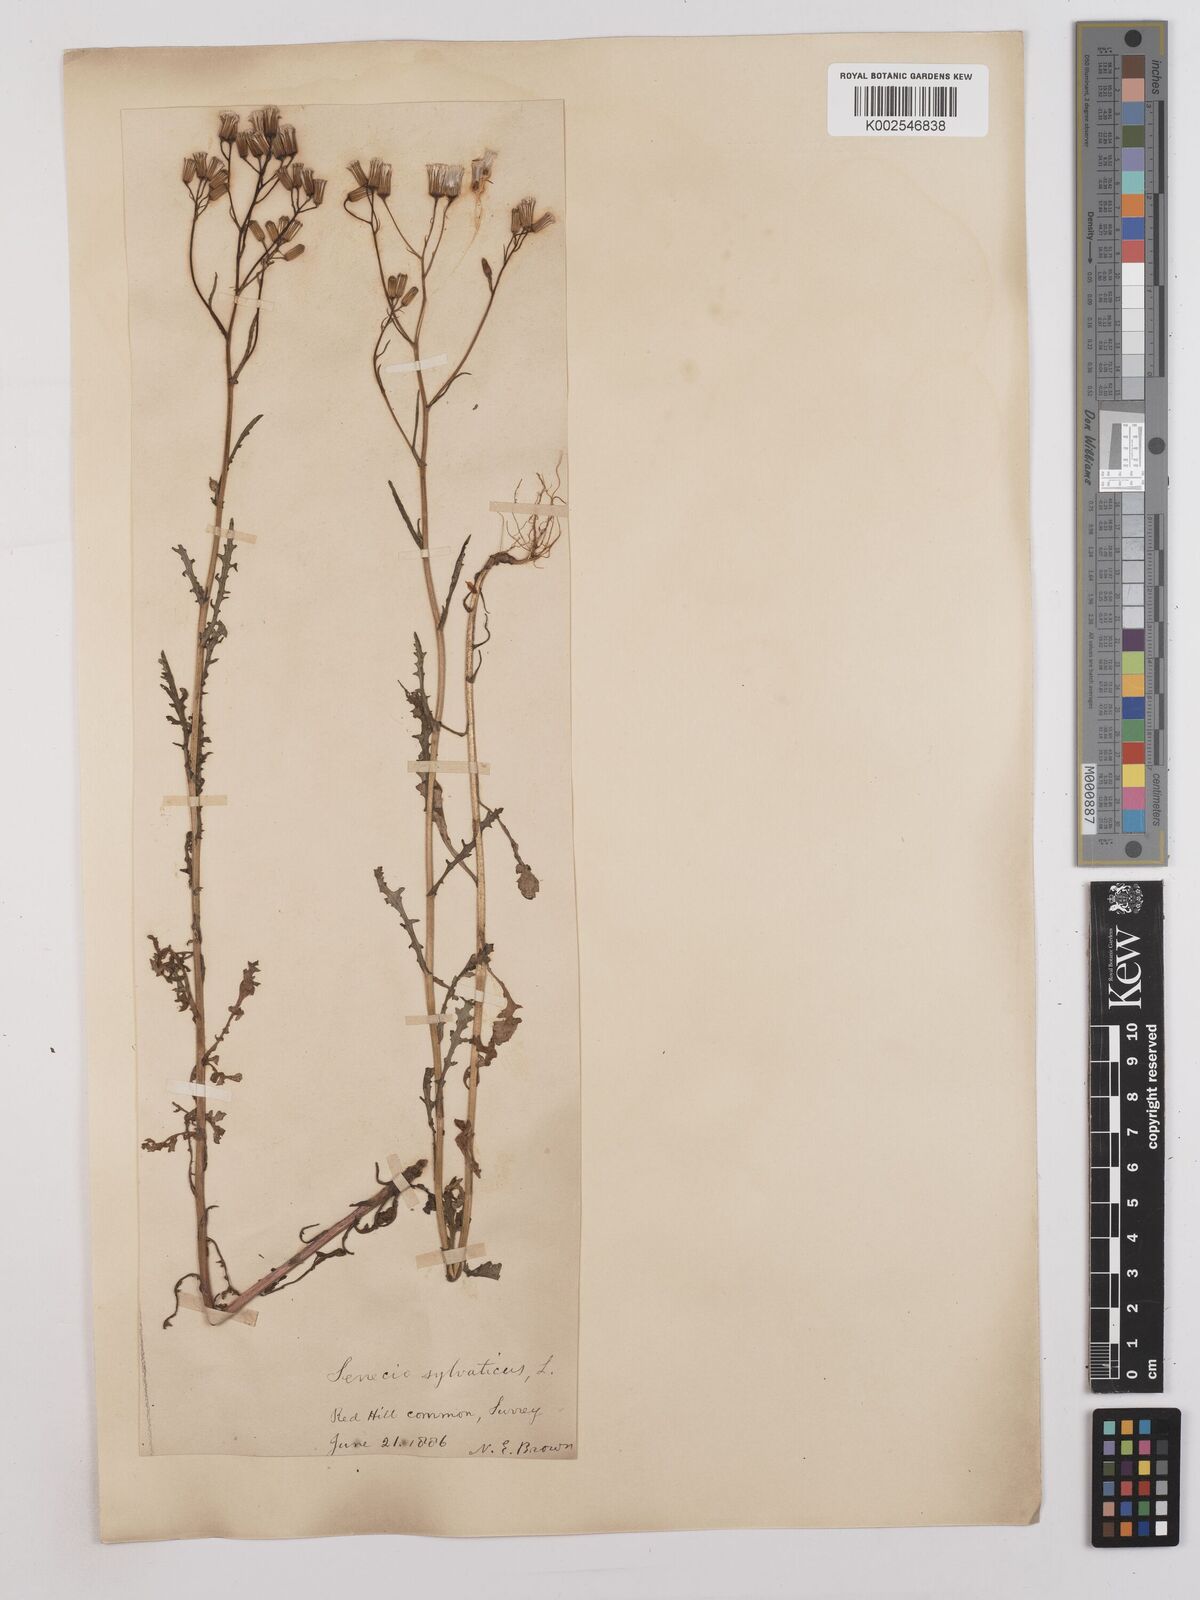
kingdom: Plantae
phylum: Tracheophyta
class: Magnoliopsida
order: Asterales
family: Asteraceae
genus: Senecio
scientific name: Senecio sylvaticus
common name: Woodland ragwort
